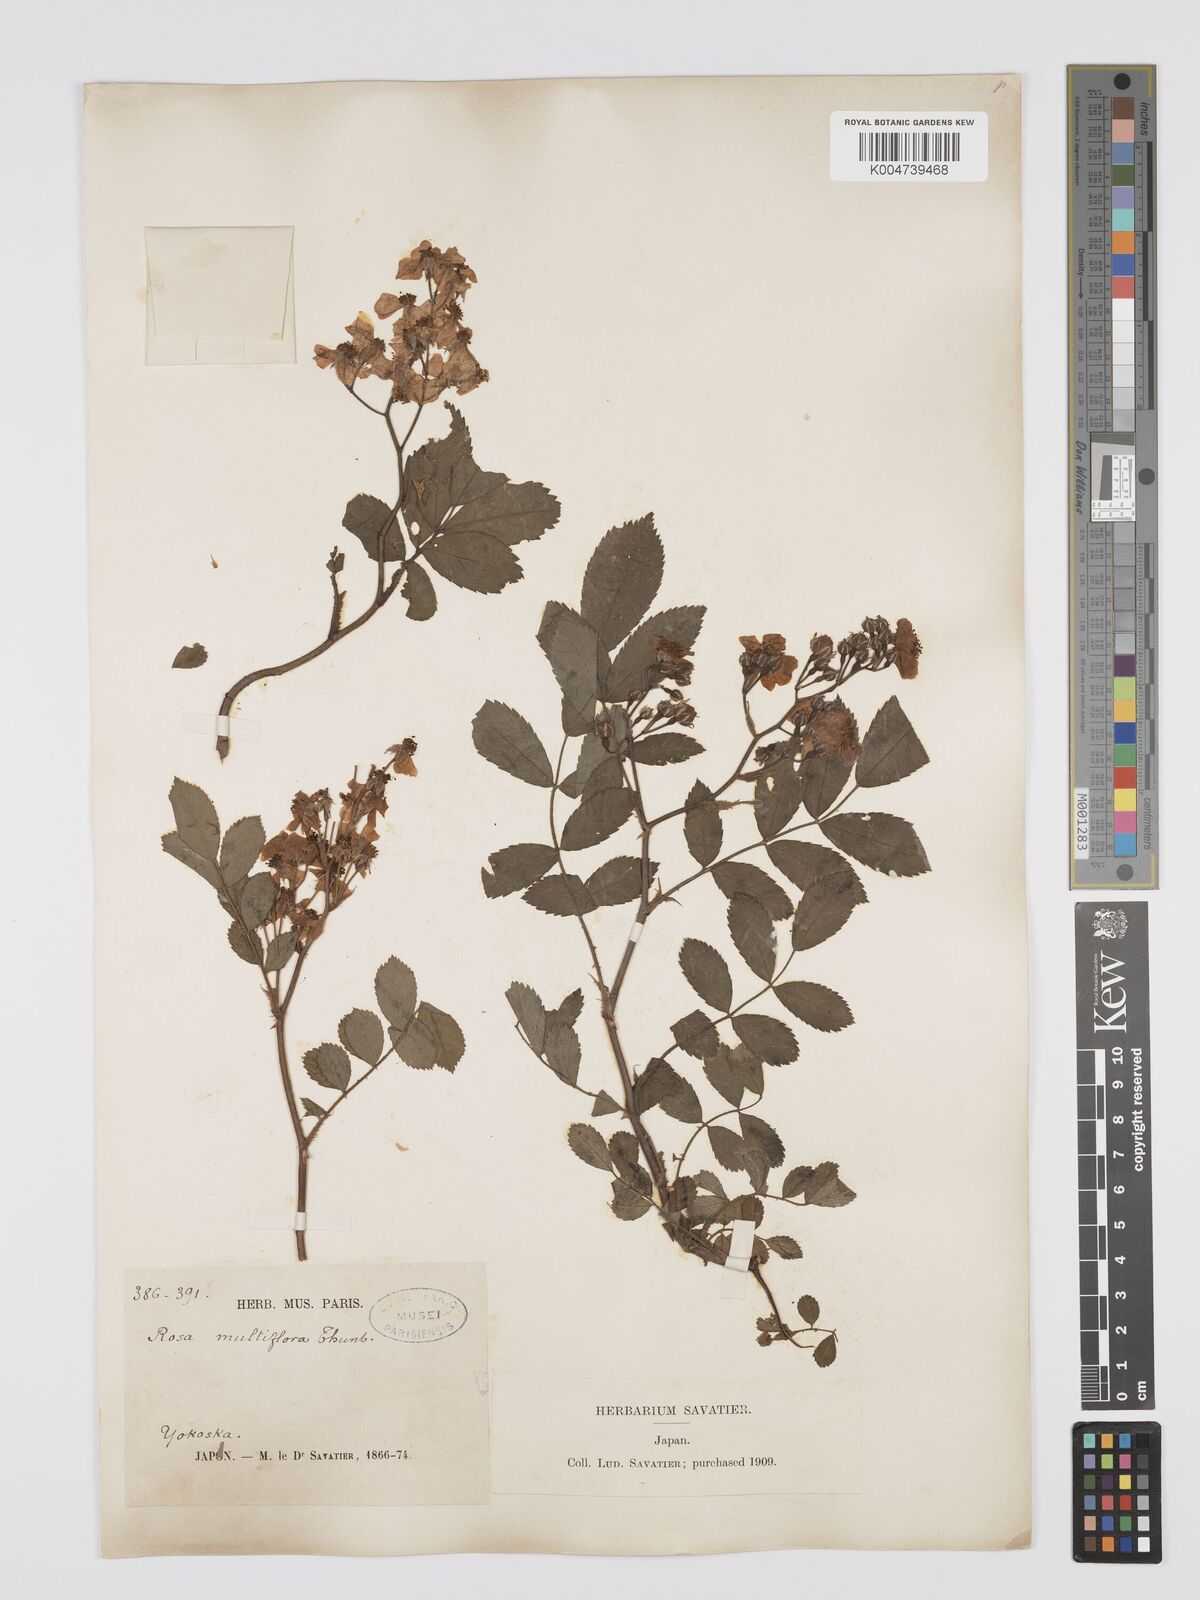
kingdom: Plantae
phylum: Tracheophyta
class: Magnoliopsida
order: Rosales
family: Rosaceae
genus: Rosa
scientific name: Rosa
